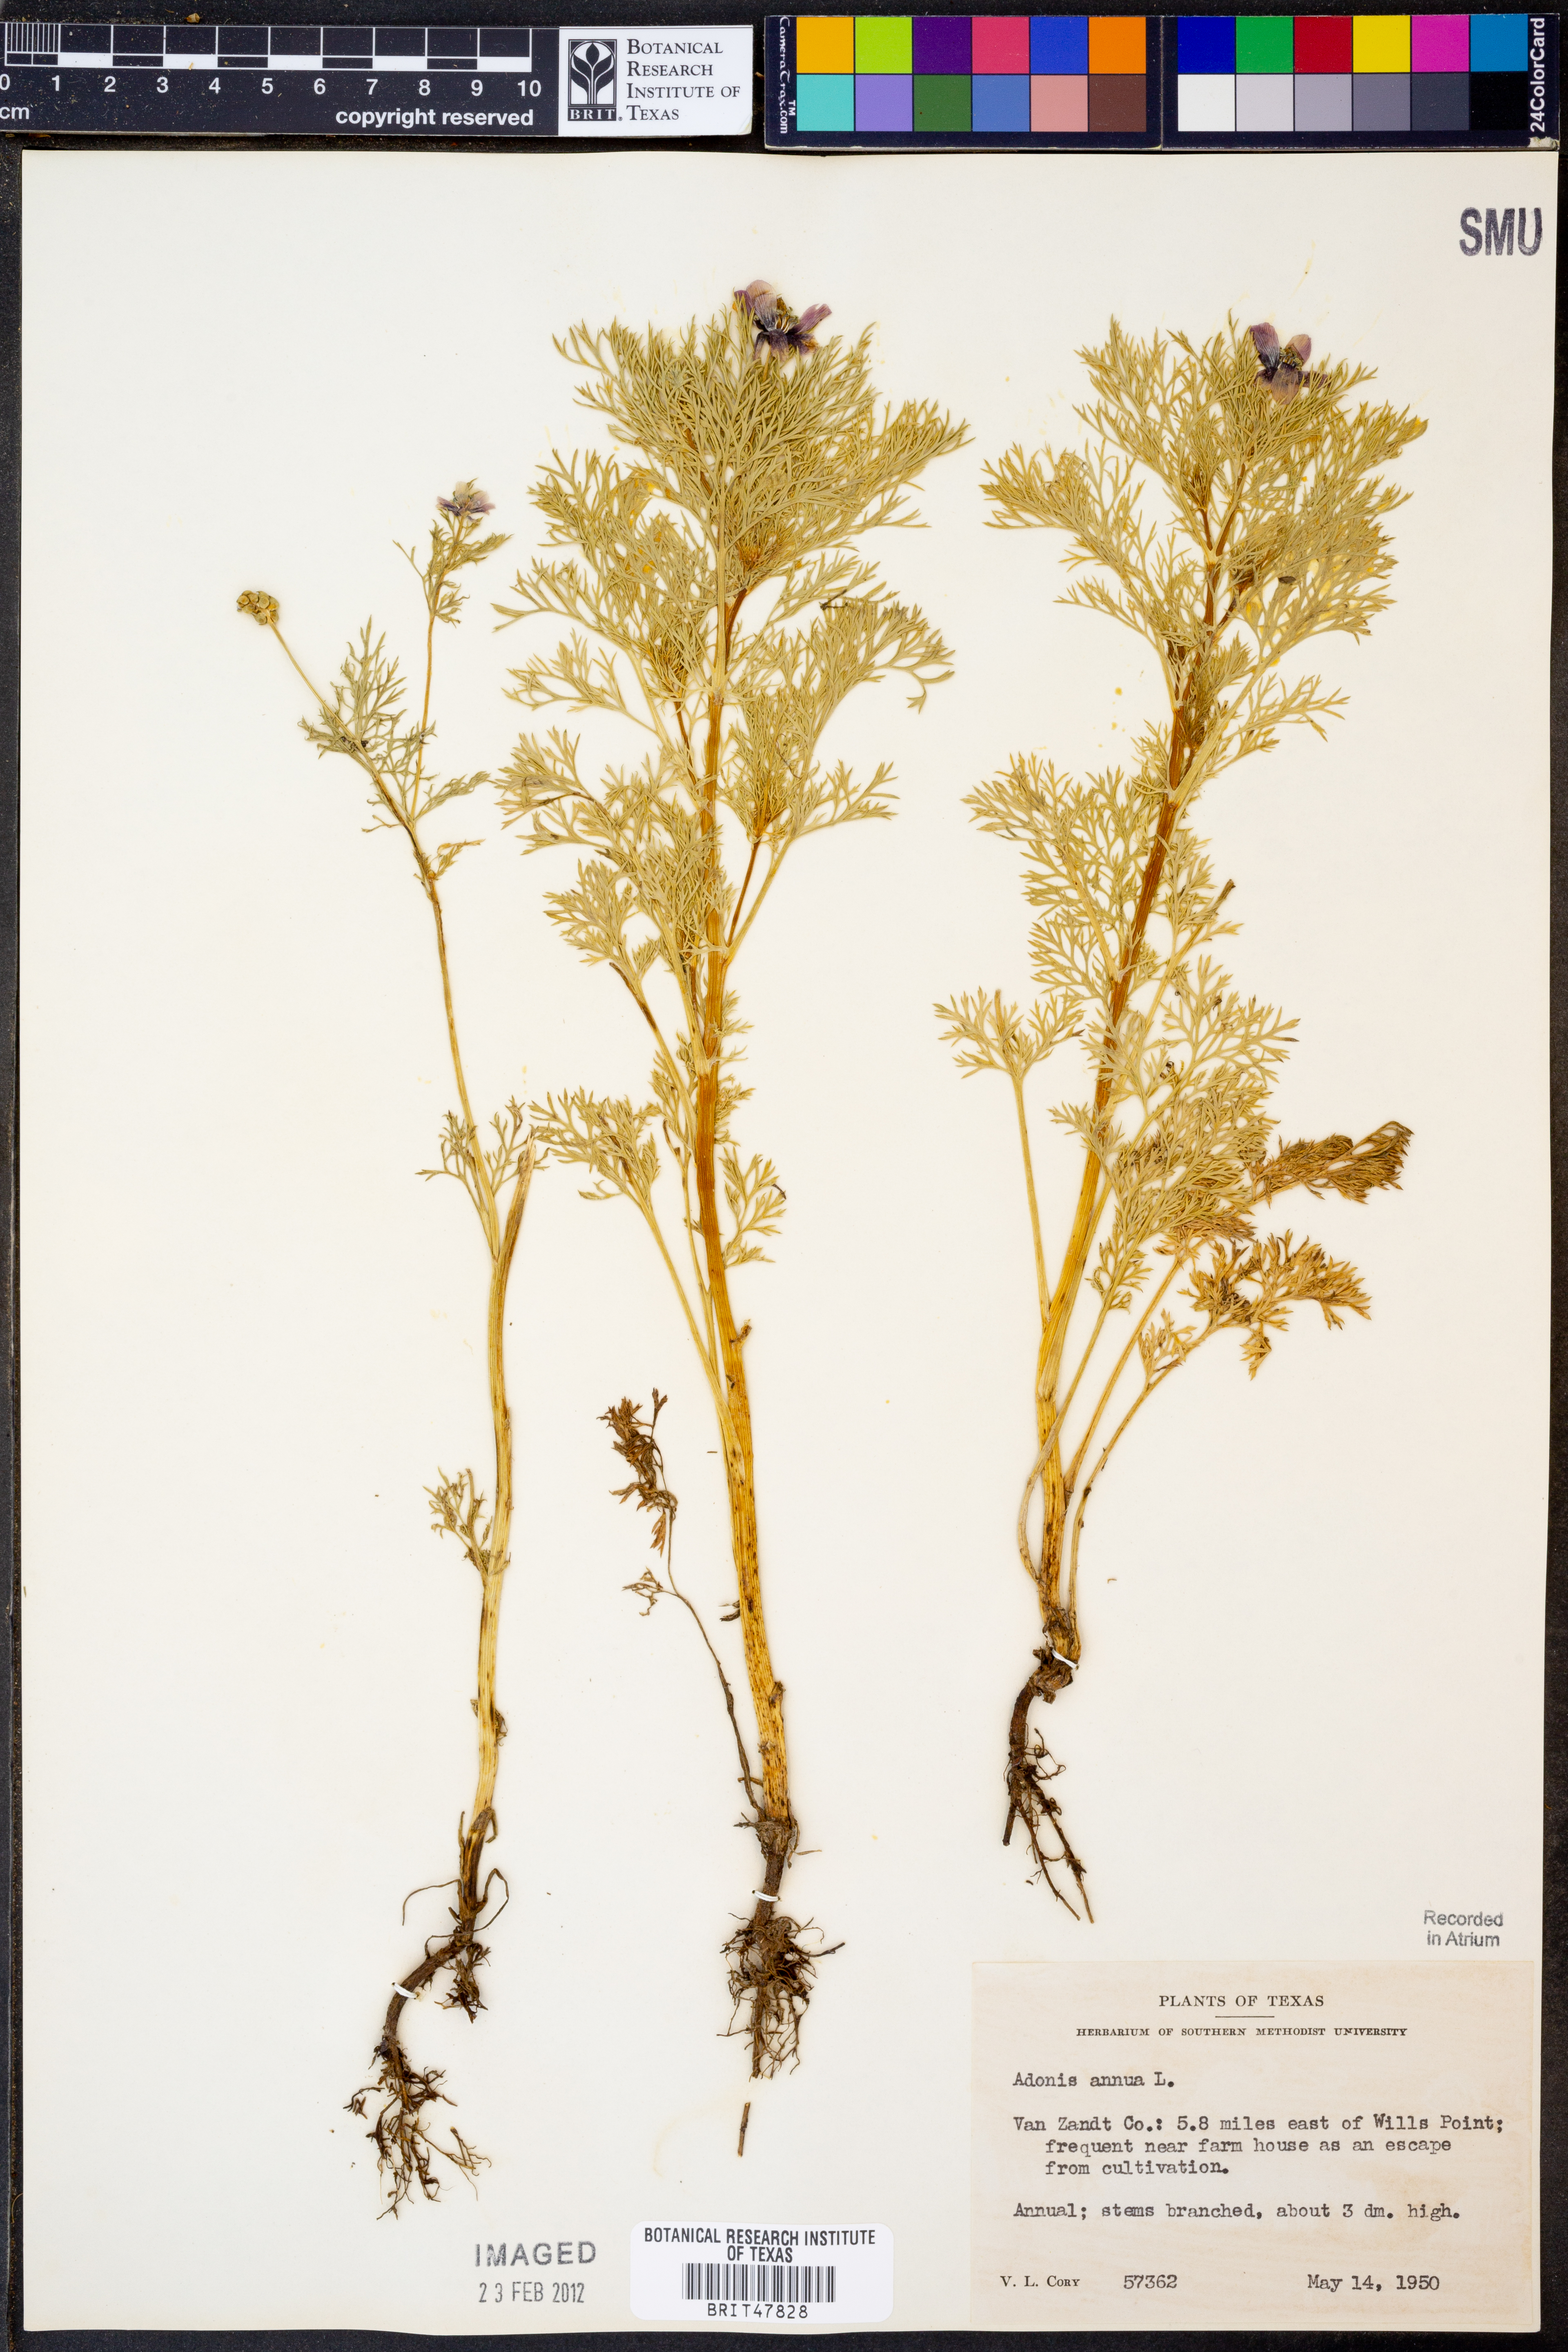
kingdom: Plantae
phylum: Tracheophyta
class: Magnoliopsida
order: Ranunculales
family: Ranunculaceae
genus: Adonis
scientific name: Adonis annua
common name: Pheasant's-eye
